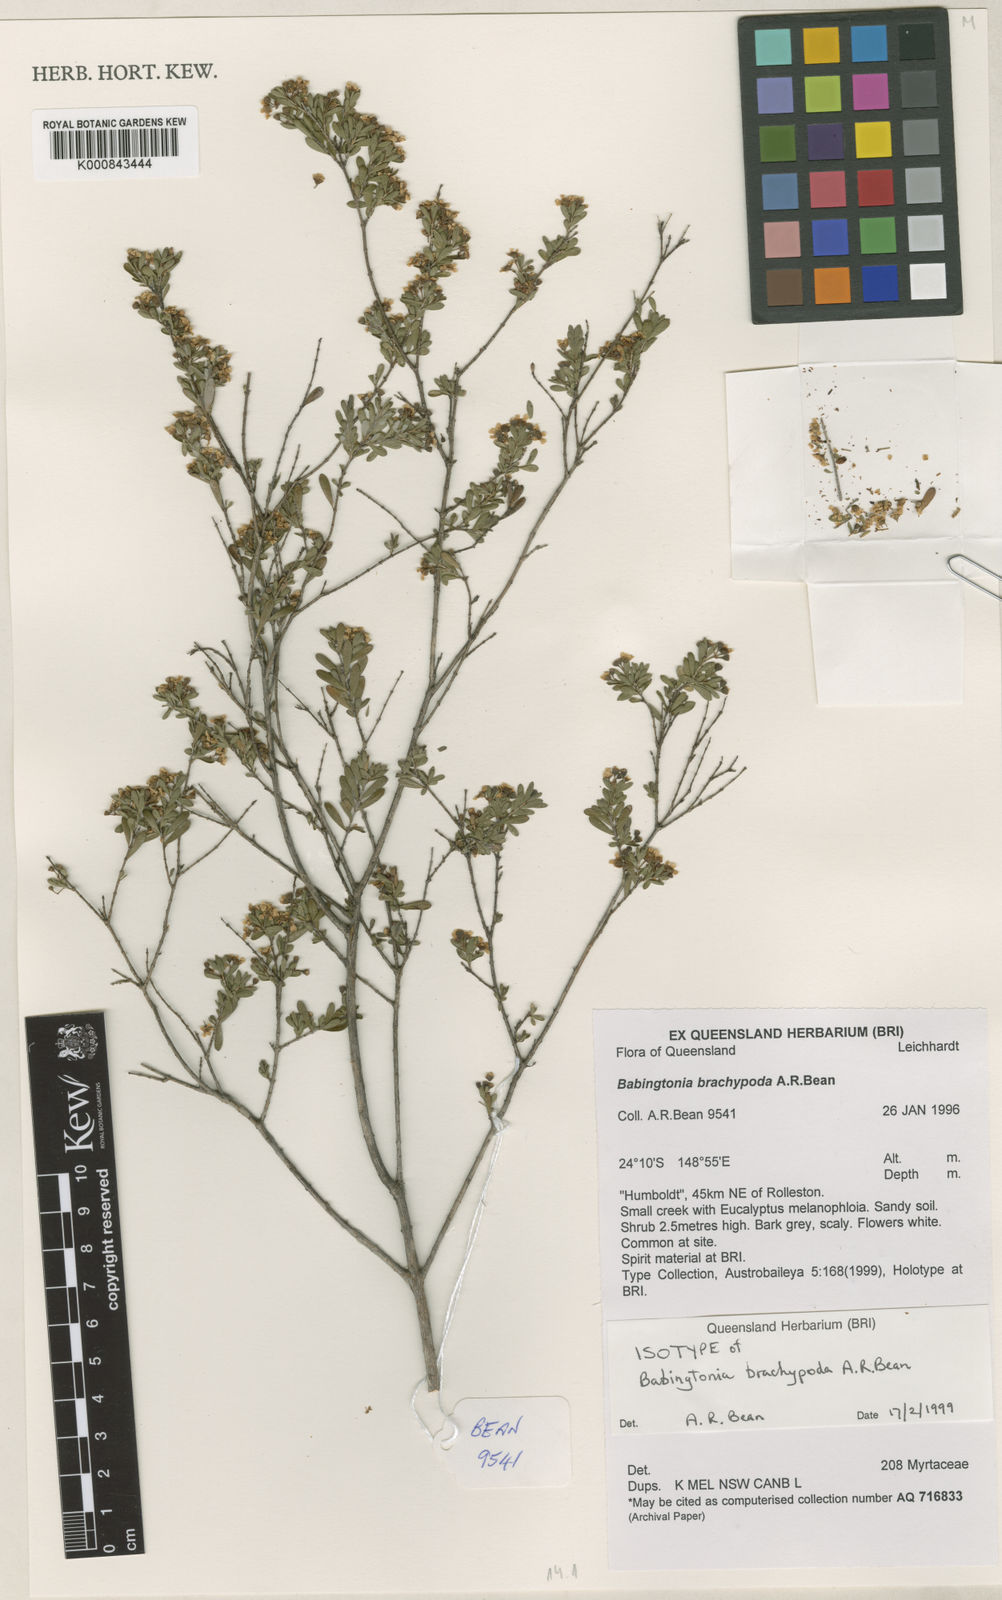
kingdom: Plantae
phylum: Tracheophyta
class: Magnoliopsida
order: Myrtales
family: Myrtaceae
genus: Sannantha
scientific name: Sannantha brachypoda
